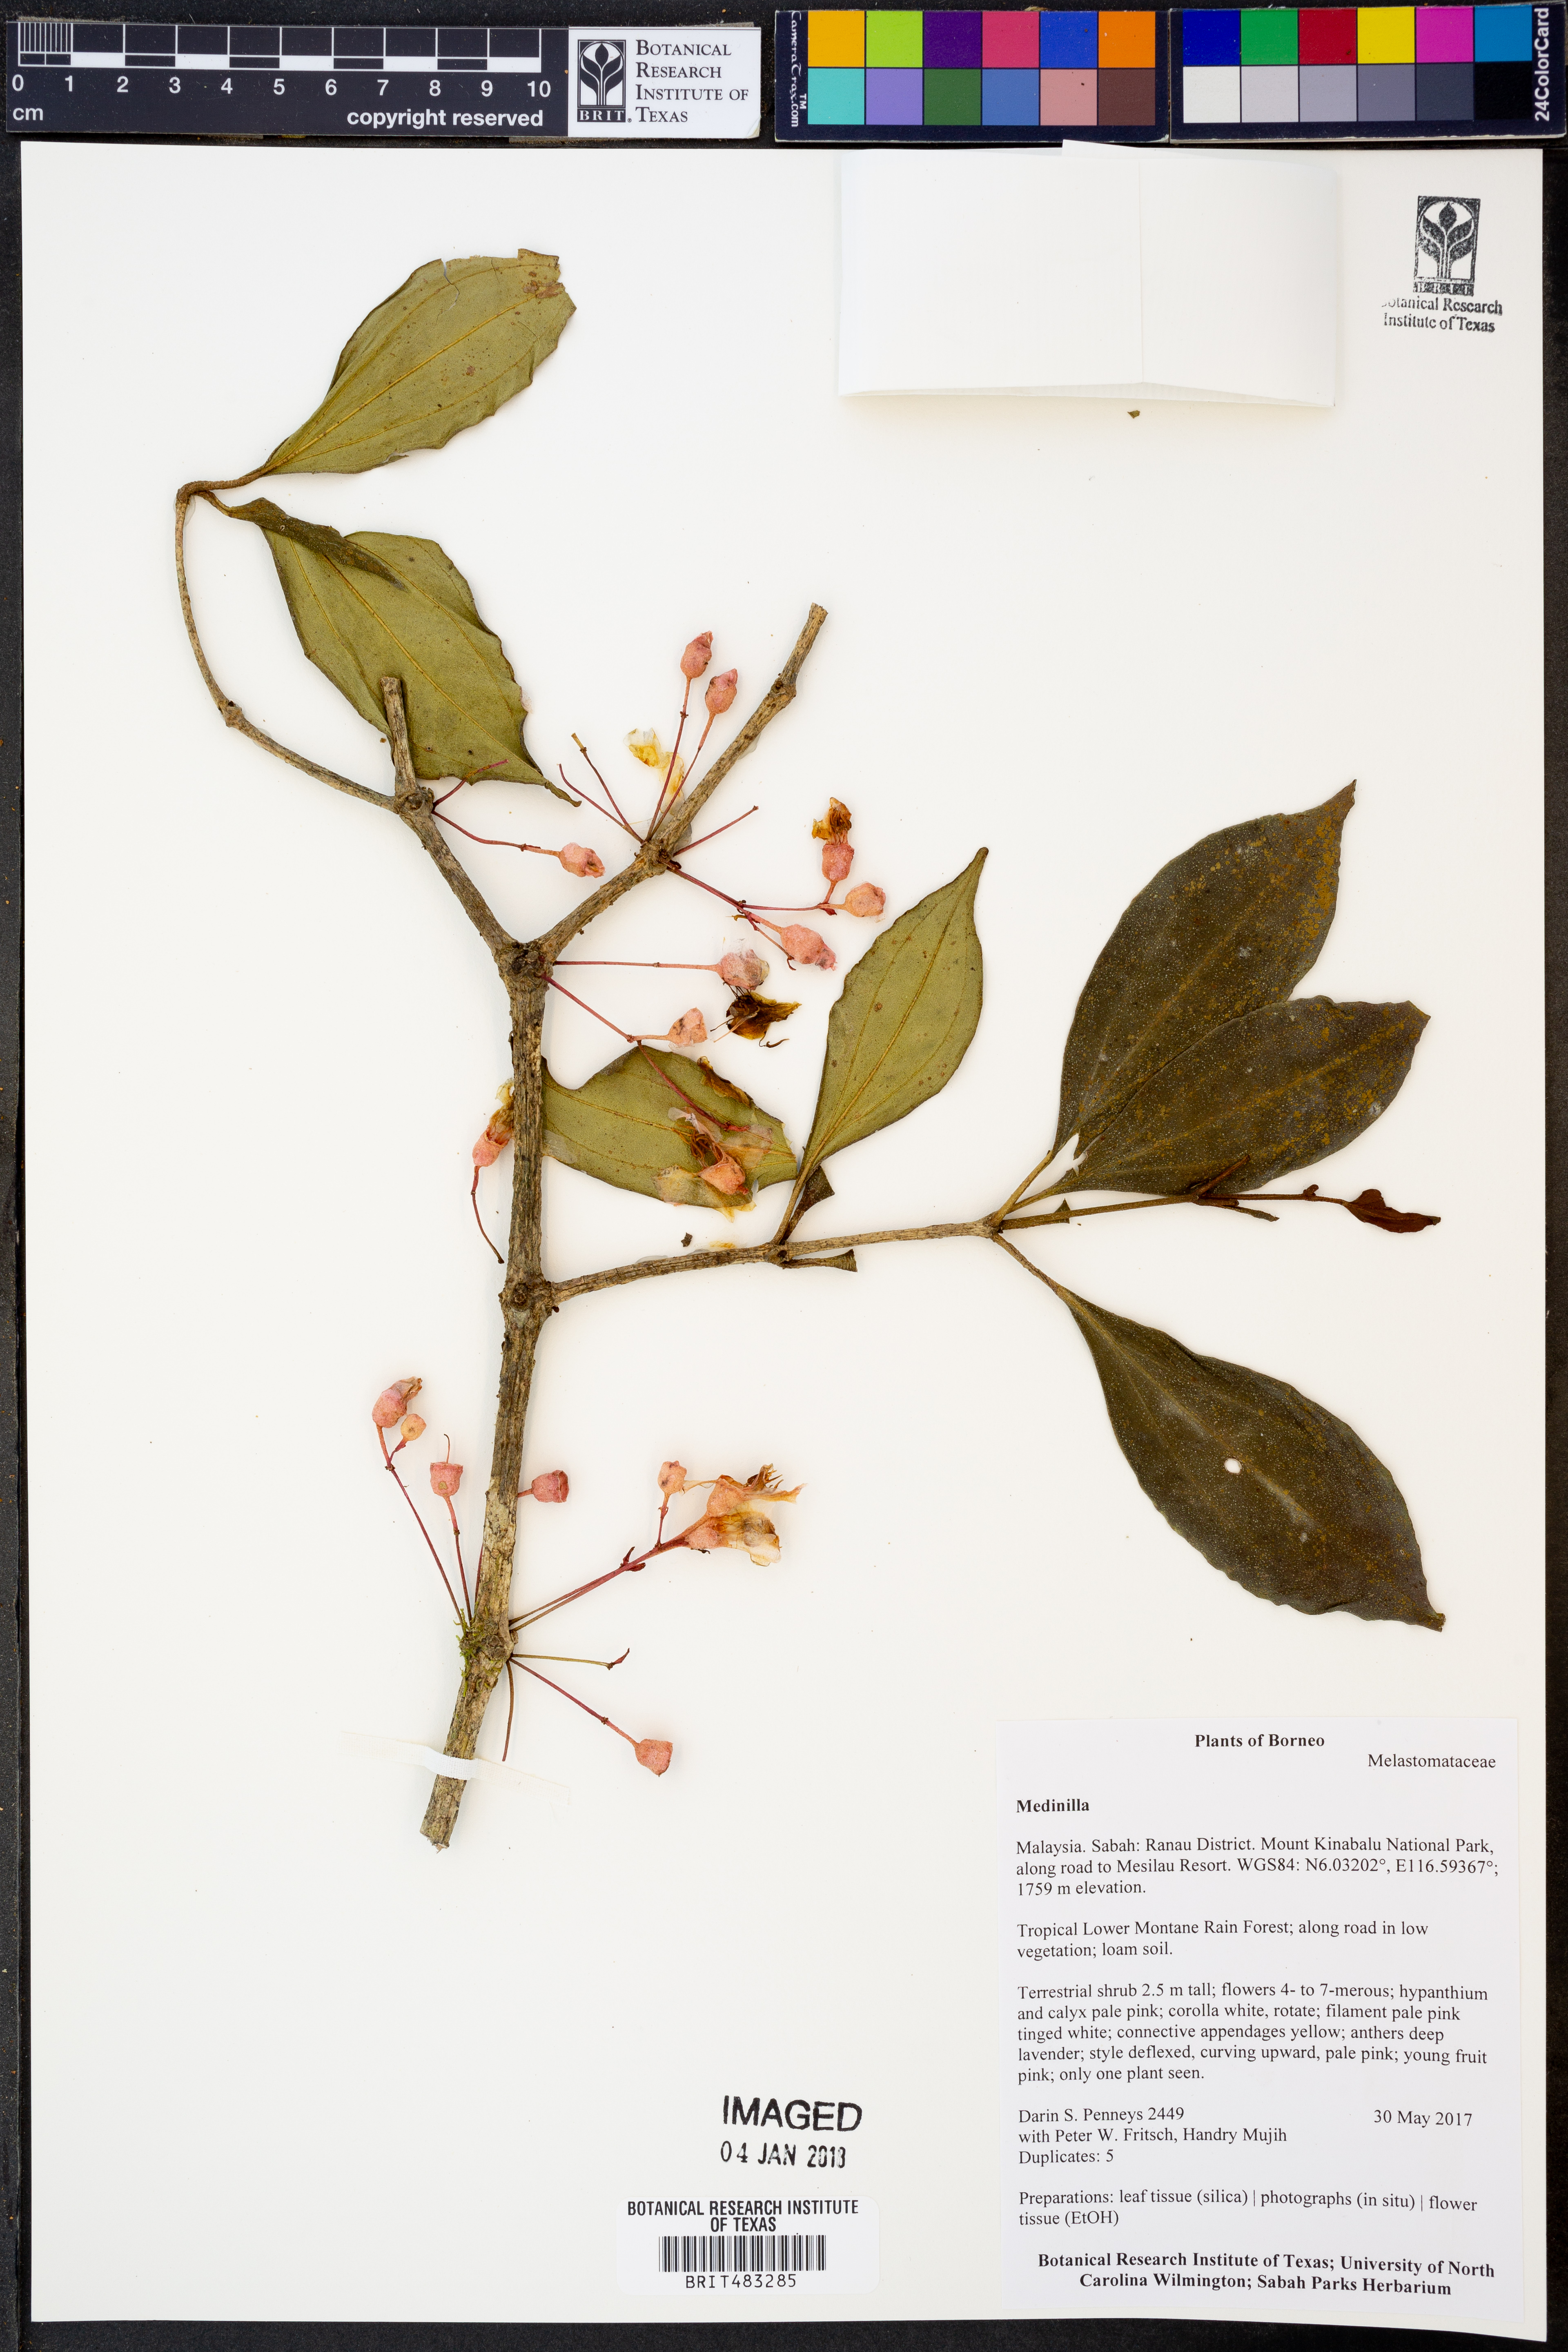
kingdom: Plantae
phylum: Tracheophyta
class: Magnoliopsida
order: Myrtales
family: Melastomataceae
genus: Medinilla
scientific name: Medinilla
